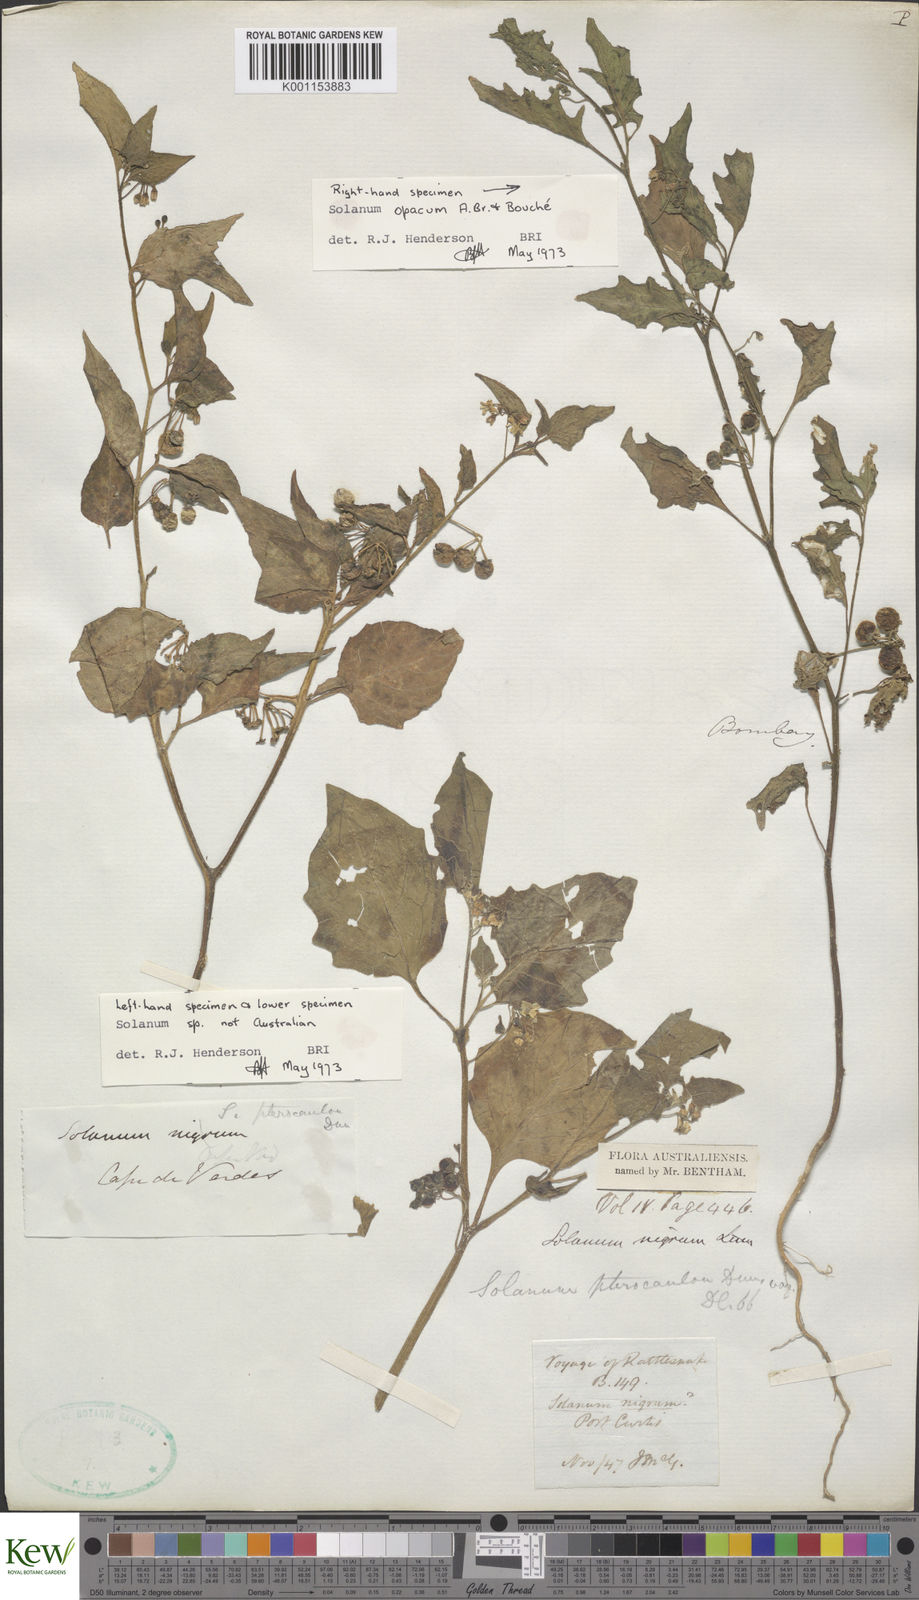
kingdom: Plantae
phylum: Tracheophyta
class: Magnoliopsida
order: Solanales
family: Solanaceae
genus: Solanum
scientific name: Solanum
